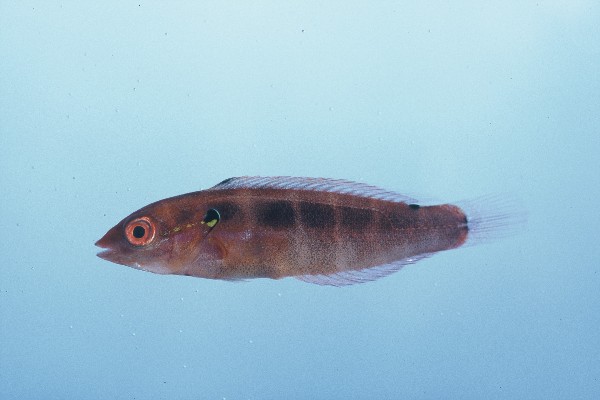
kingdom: Animalia
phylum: Chordata
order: Perciformes
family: Labridae
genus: Coris
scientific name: Coris caudimacula
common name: Spottail coris
